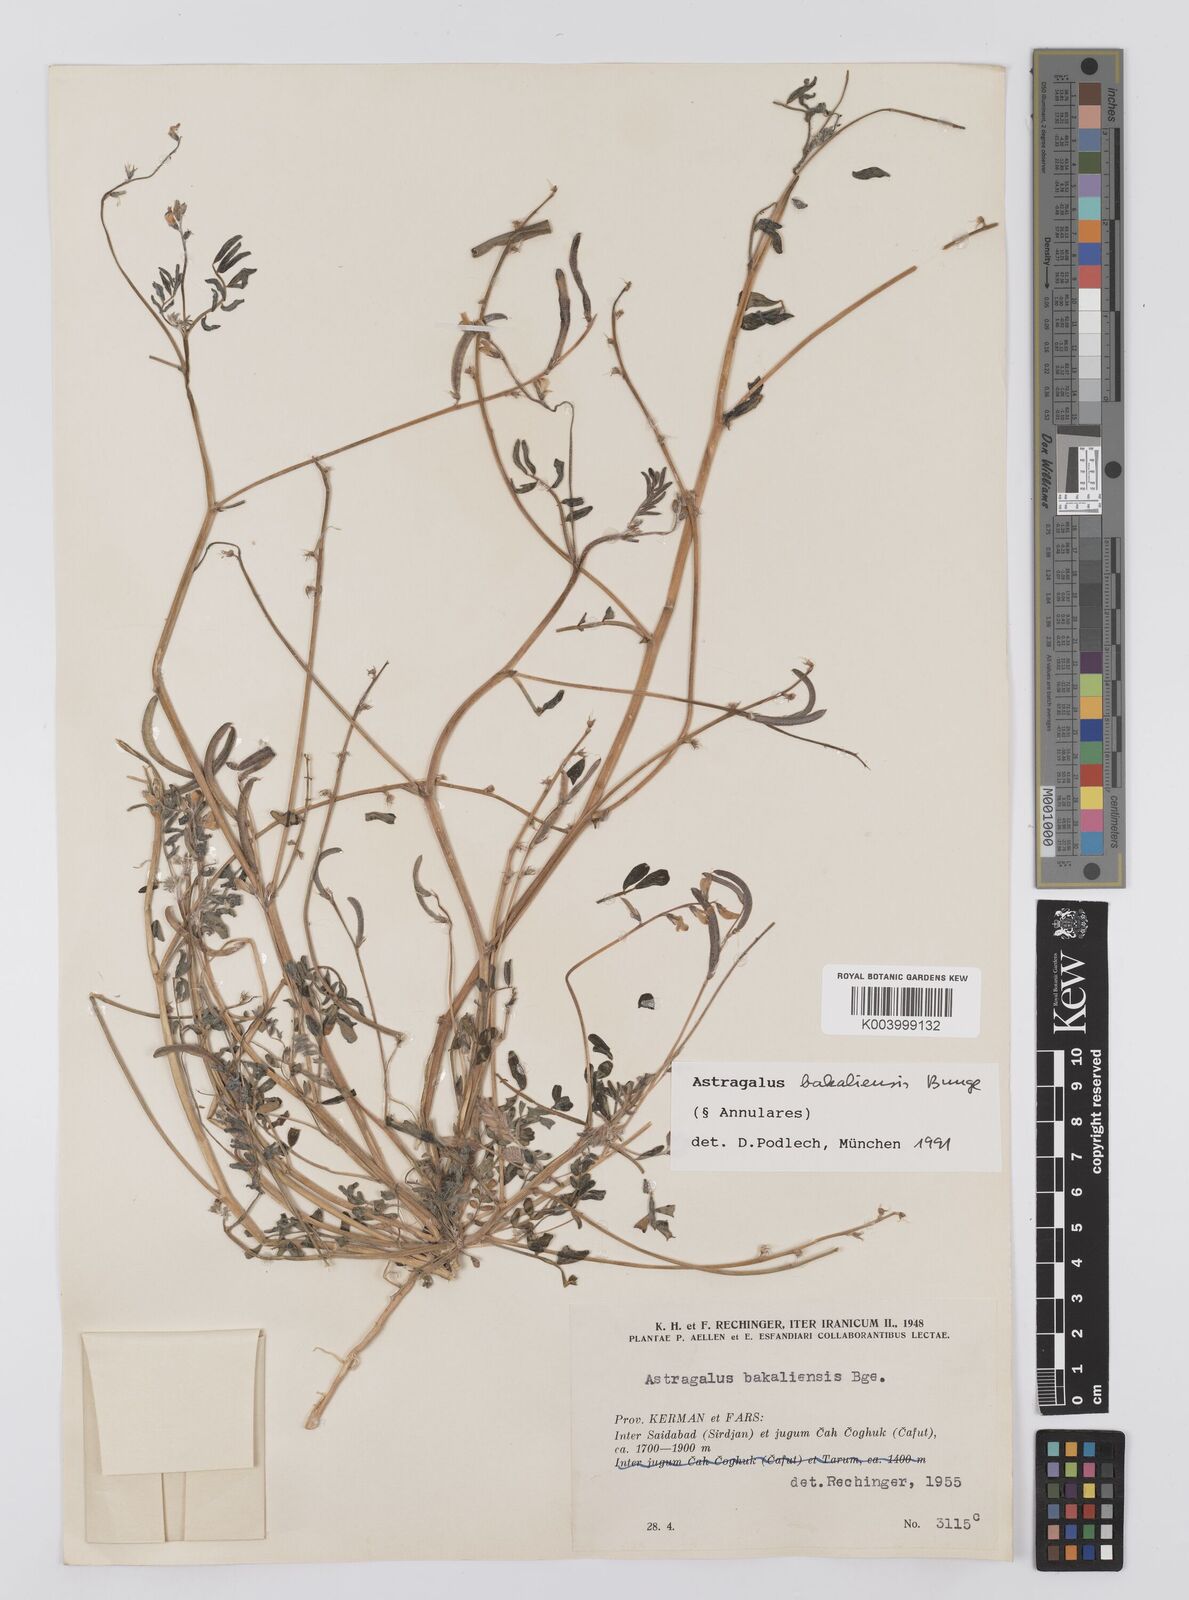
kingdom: Plantae
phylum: Tracheophyta
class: Magnoliopsida
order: Fabales
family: Fabaceae
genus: Astragalus
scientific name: Astragalus bakaliensis
